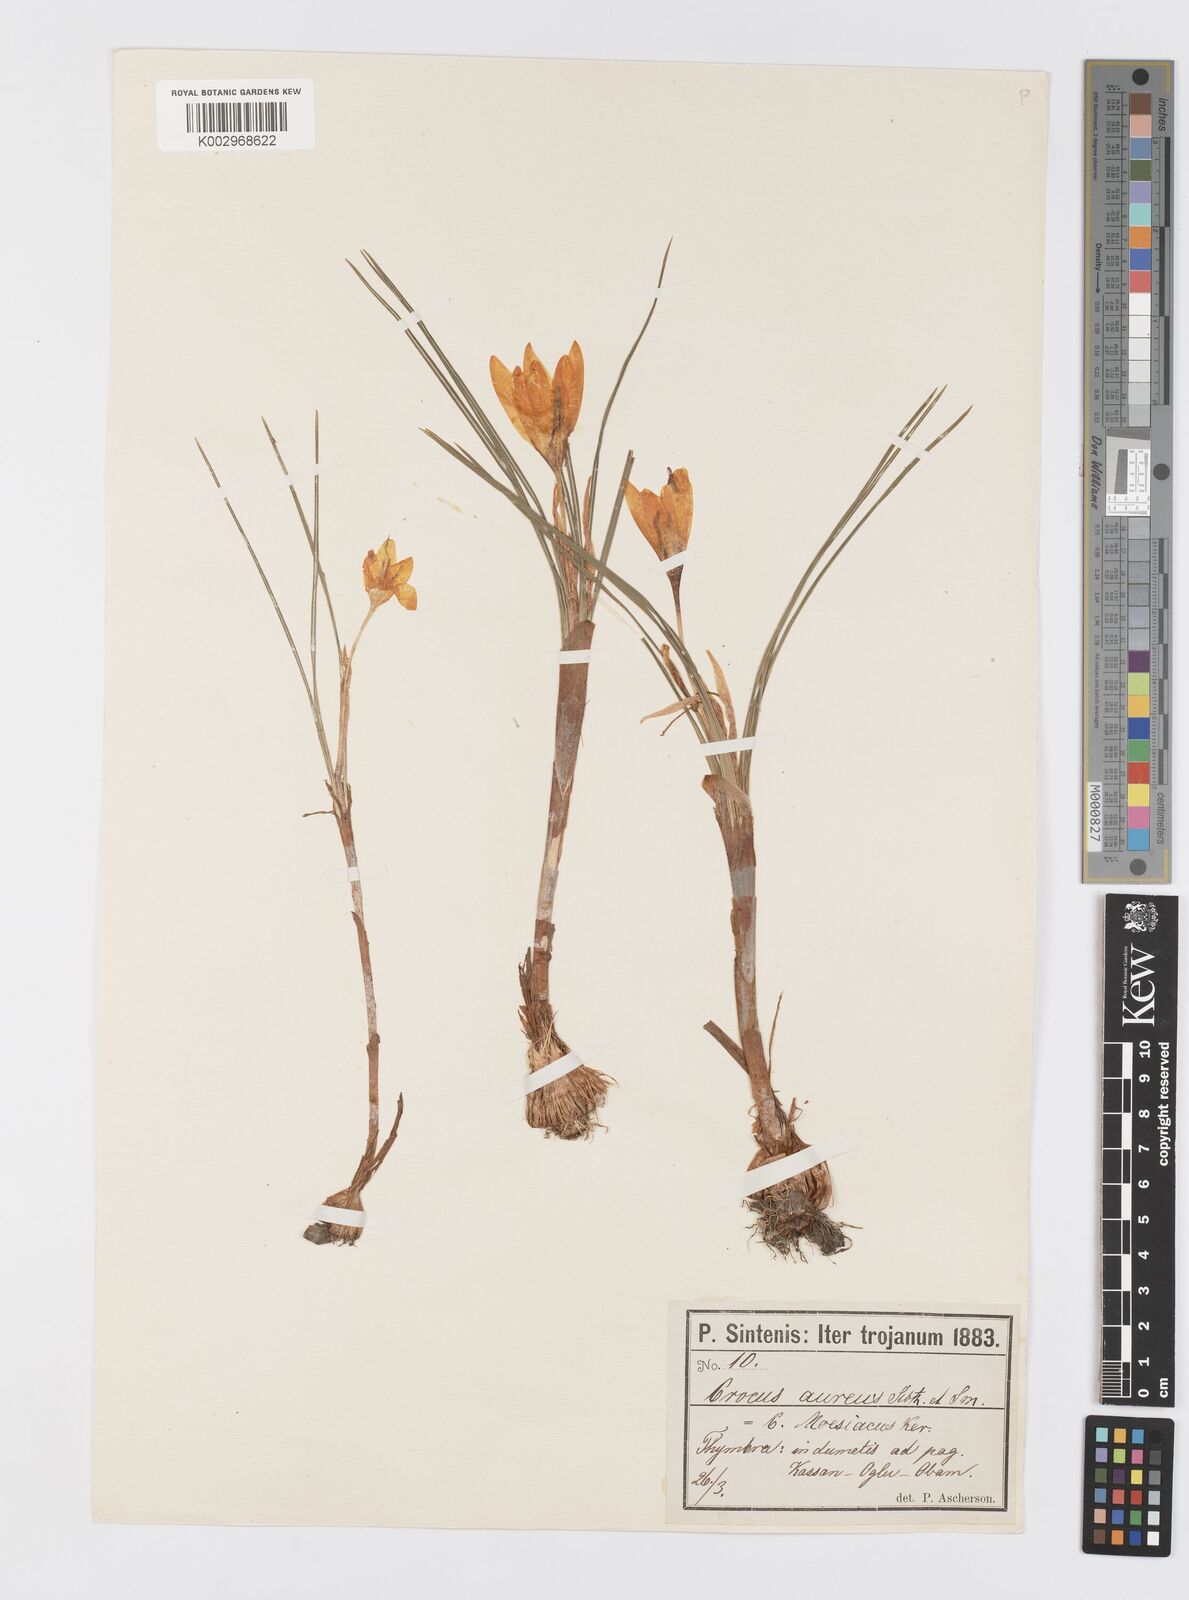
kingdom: Plantae
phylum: Tracheophyta
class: Liliopsida
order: Asparagales
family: Iridaceae
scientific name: Iridaceae
